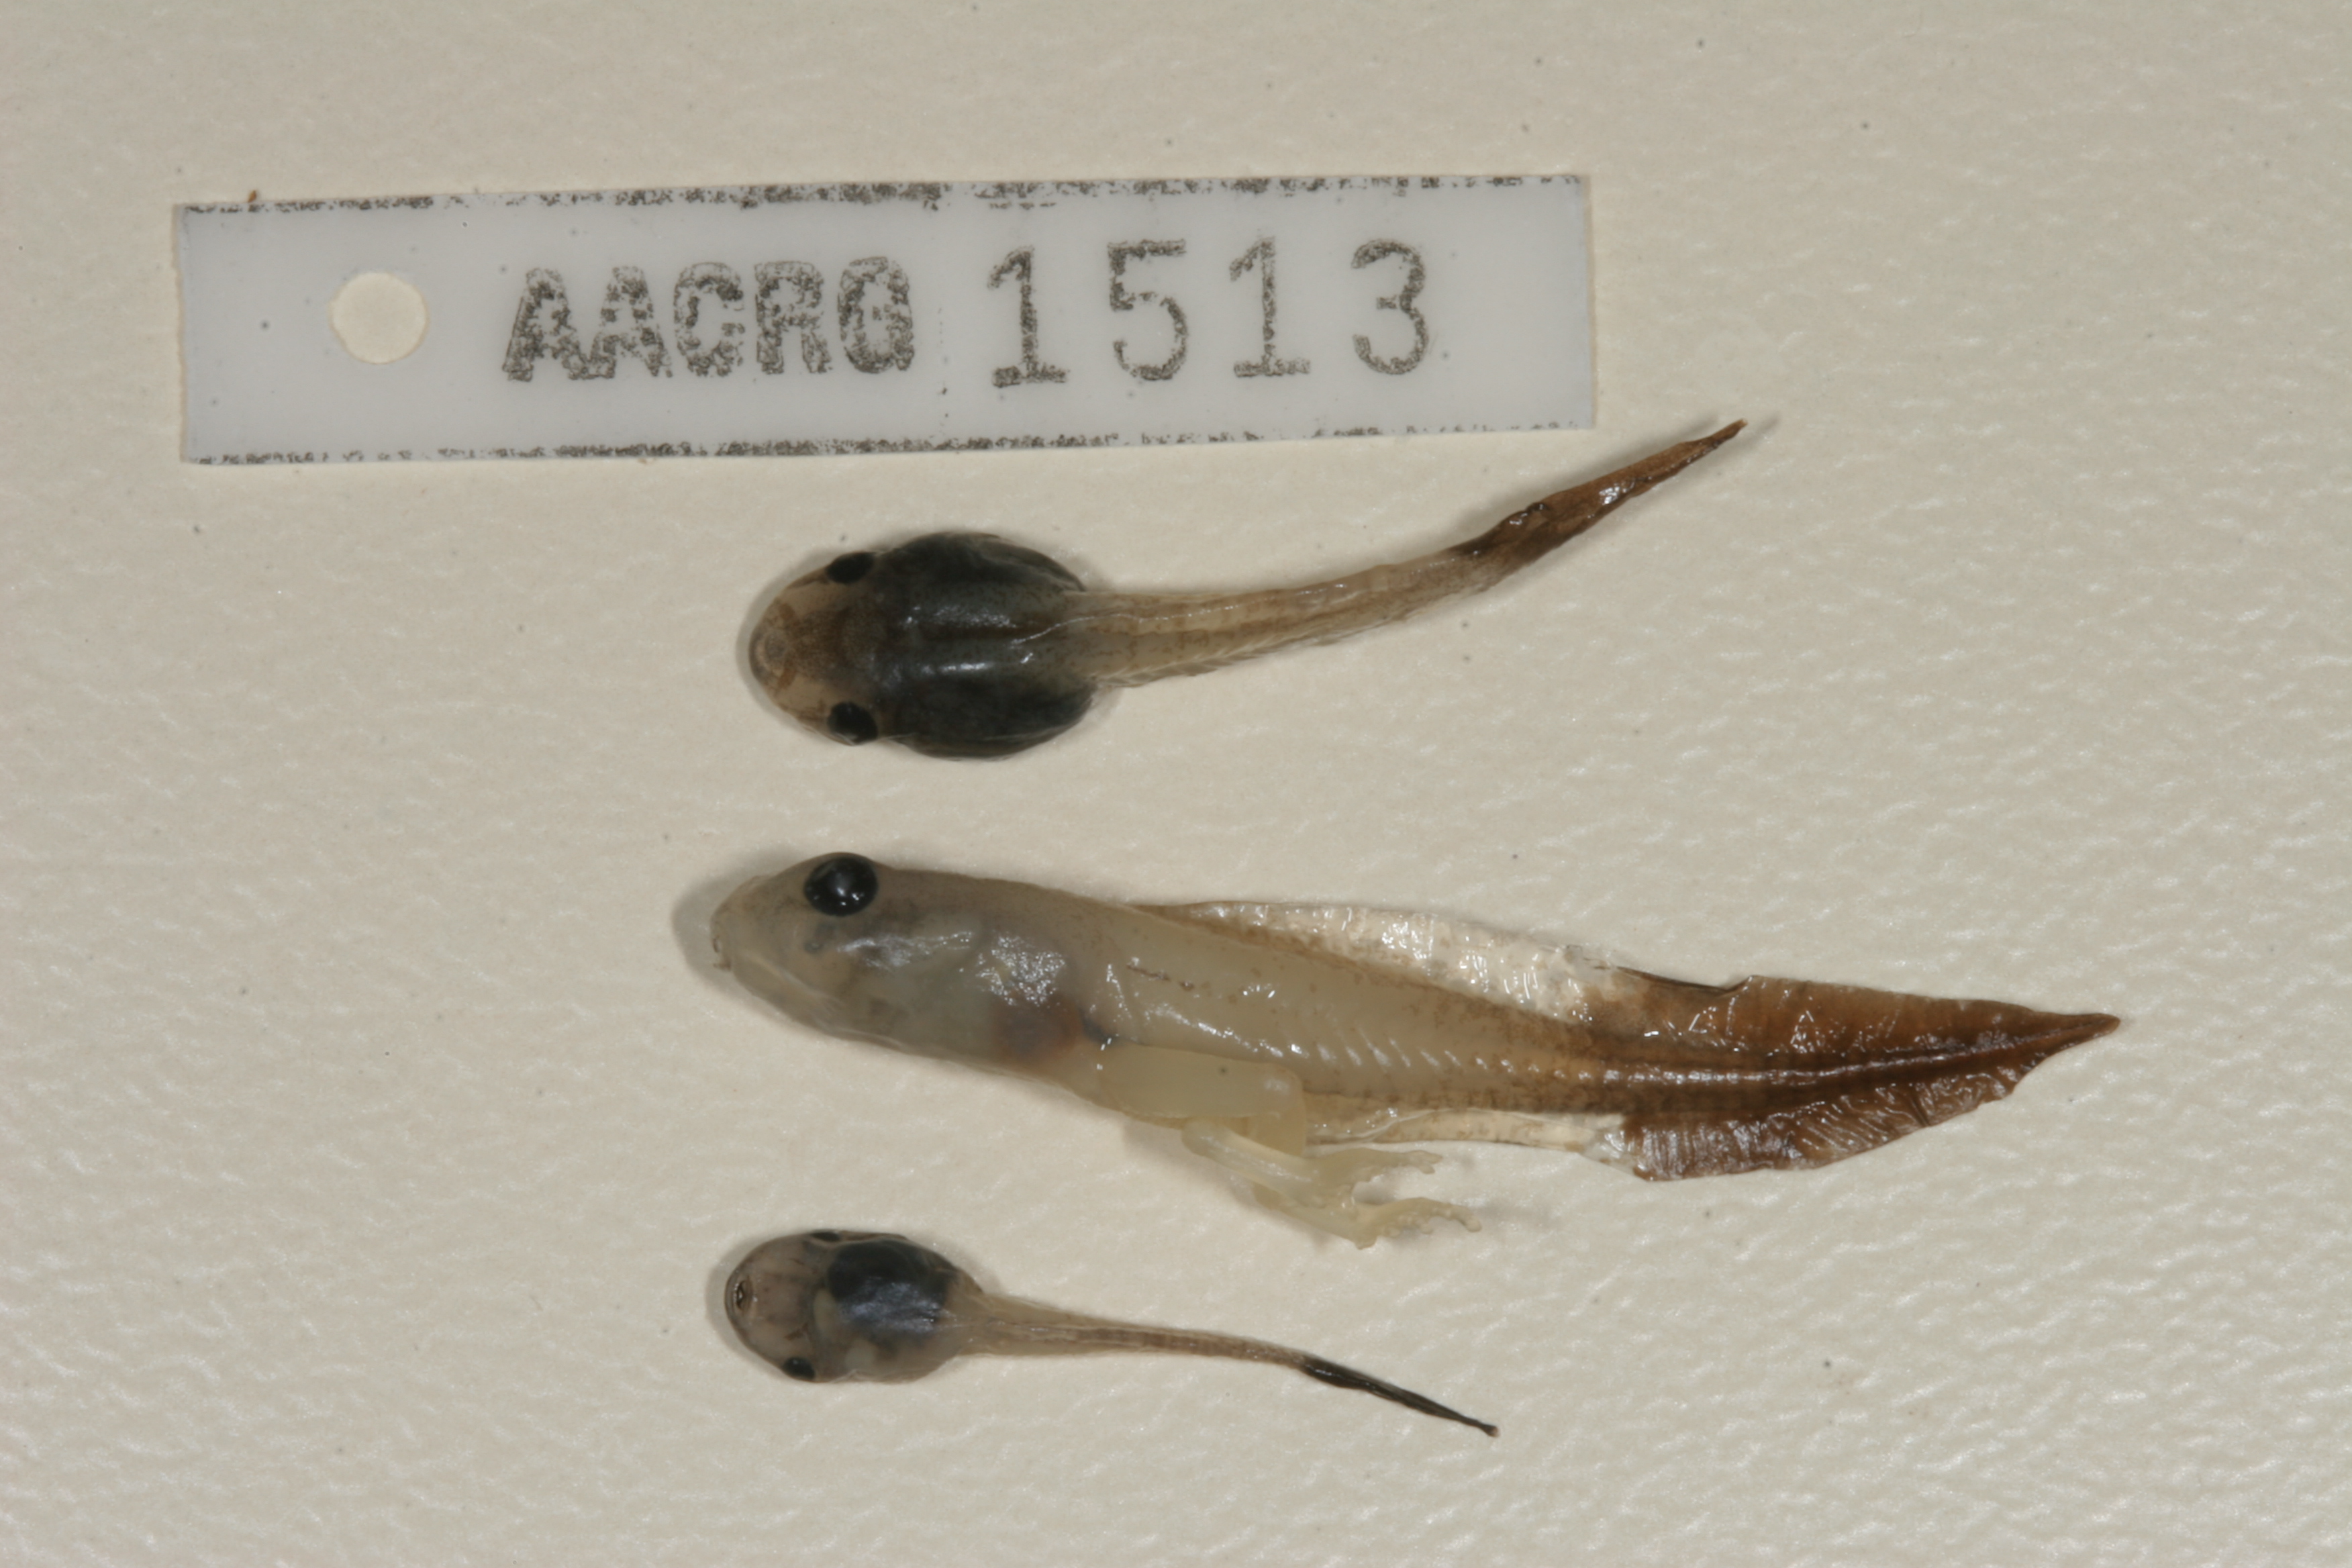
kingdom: Animalia
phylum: Chordata
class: Amphibia
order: Anura
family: Hyperoliidae
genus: Hyperolius
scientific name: Hyperolius pusillus
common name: Water lily reed frog
